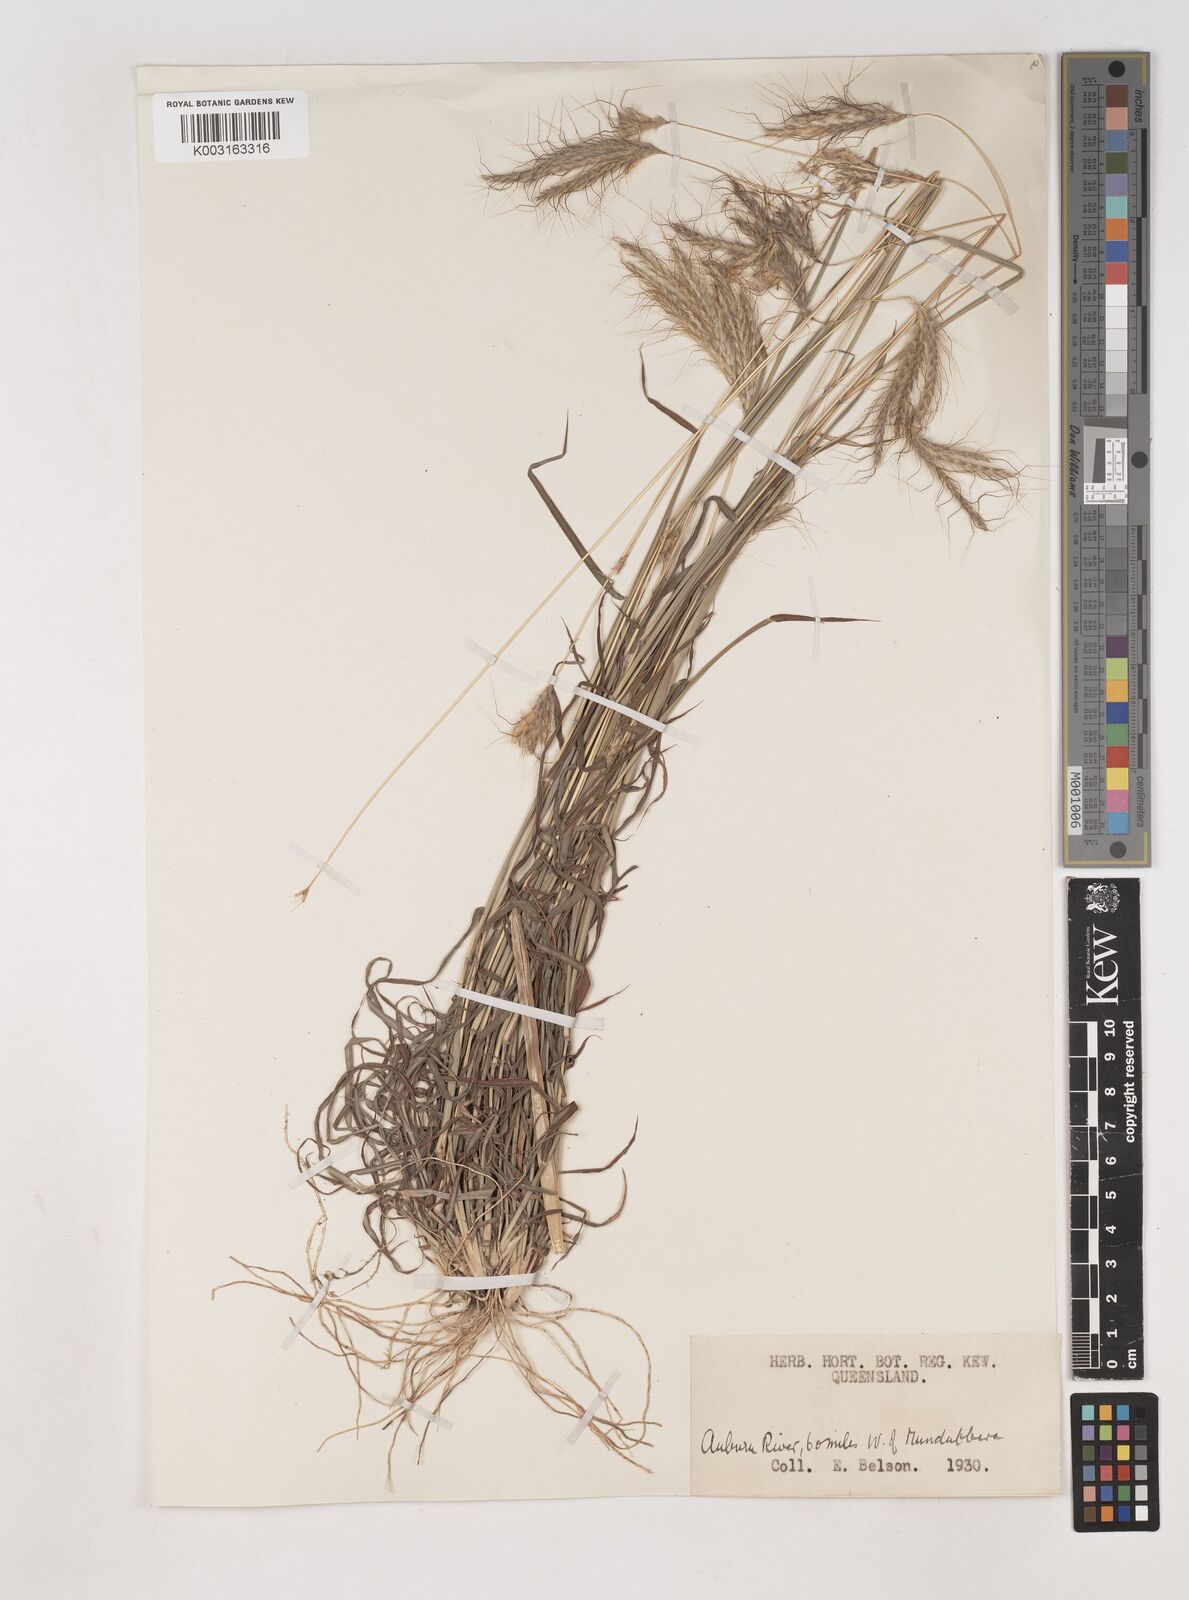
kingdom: Plantae
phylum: Tracheophyta
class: Liliopsida
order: Poales
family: Poaceae
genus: Dichanthium
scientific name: Dichanthium sericeum
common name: Silky bluestem
